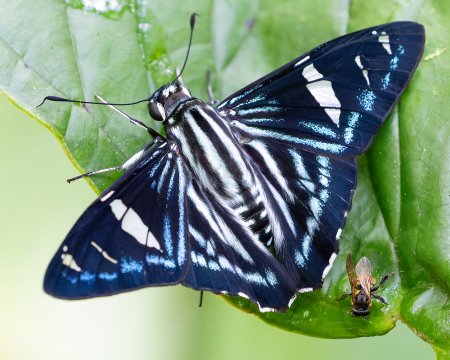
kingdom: Animalia
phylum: Arthropoda
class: Insecta
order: Lepidoptera
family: Hesperiidae
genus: Phocides
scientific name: Phocides pigmalion
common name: Mangrove Skipper
